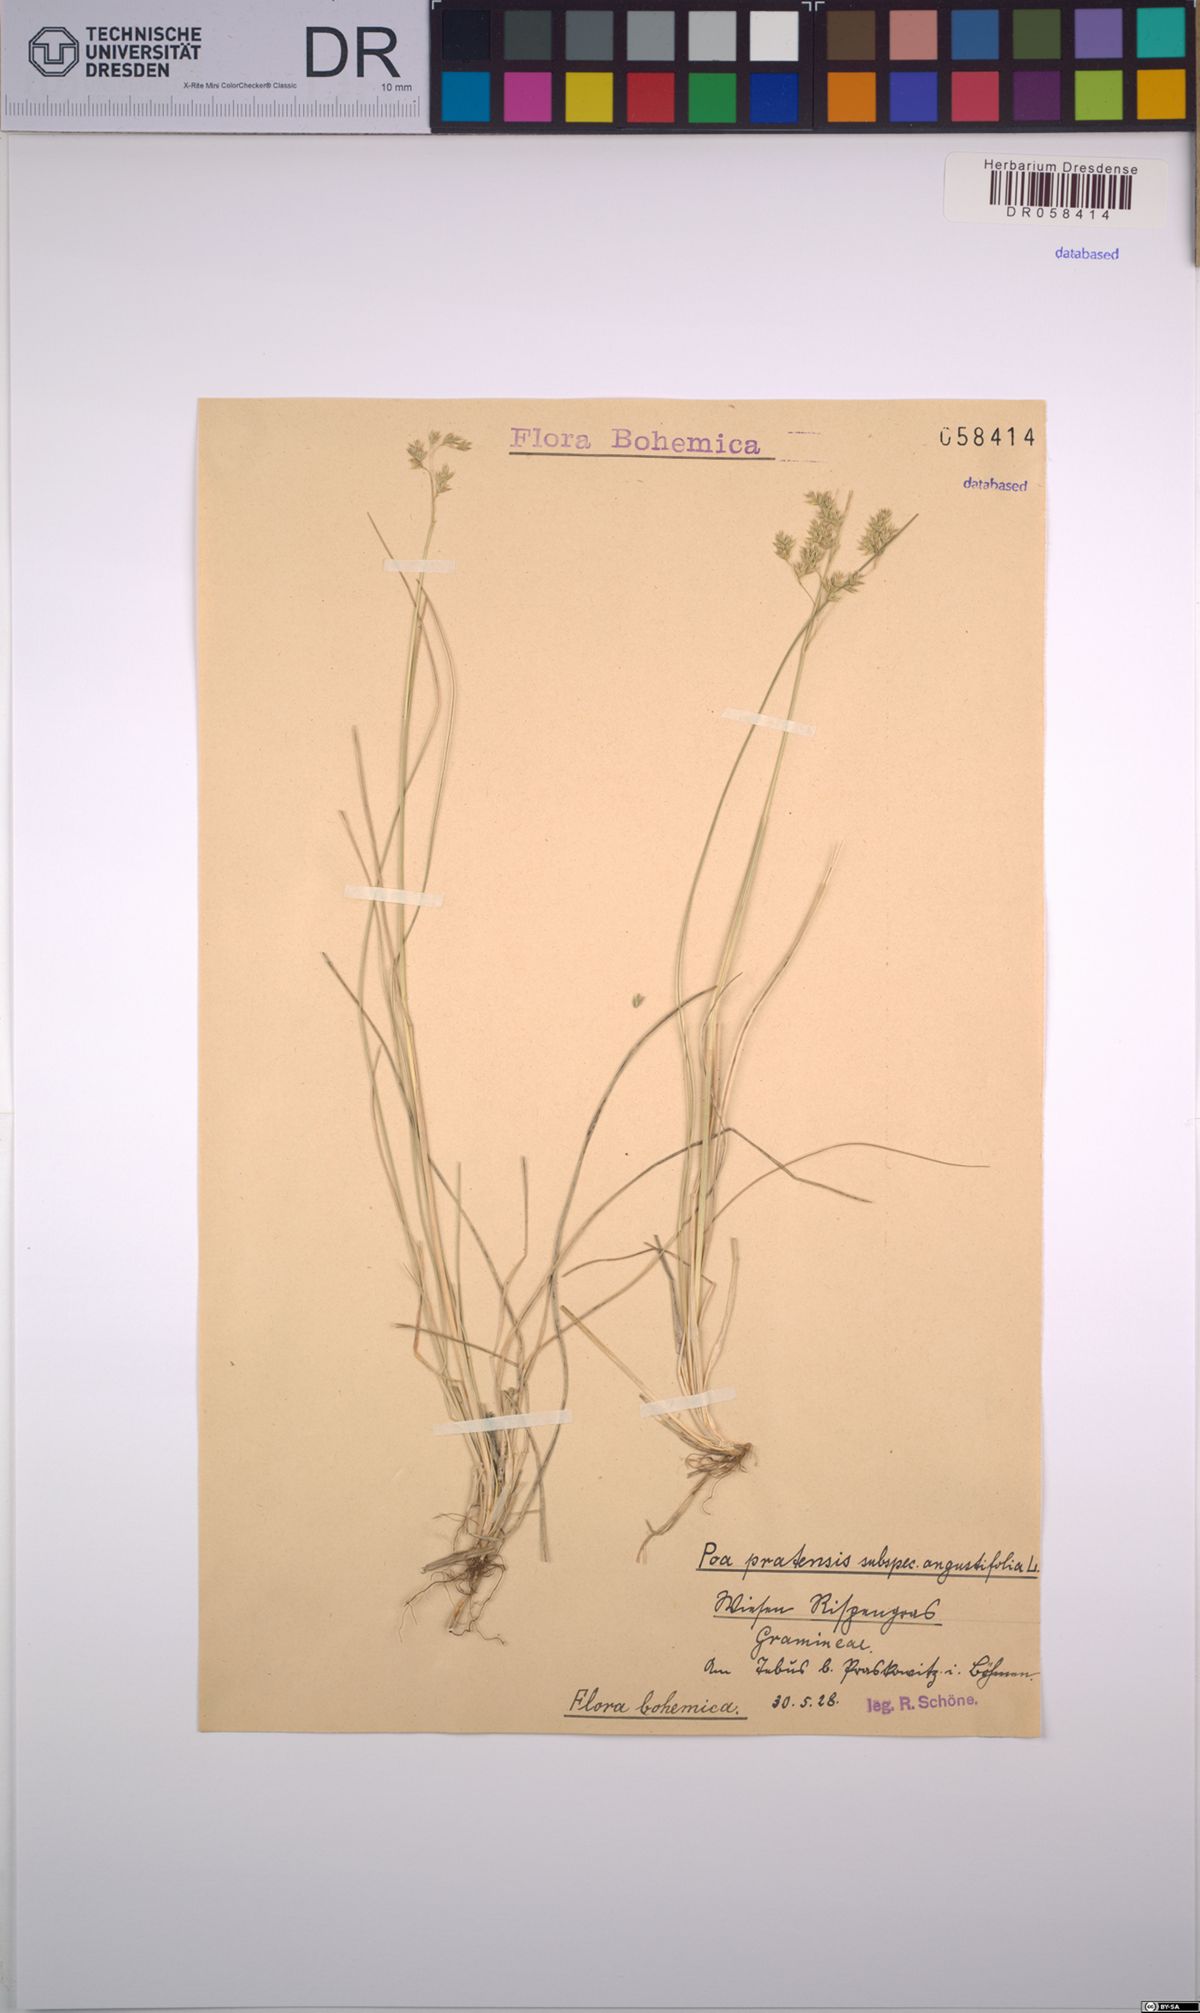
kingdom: Plantae
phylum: Tracheophyta
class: Liliopsida
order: Poales
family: Poaceae
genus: Poa
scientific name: Poa angustifolia
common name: Narrow-leaved meadow-grass
